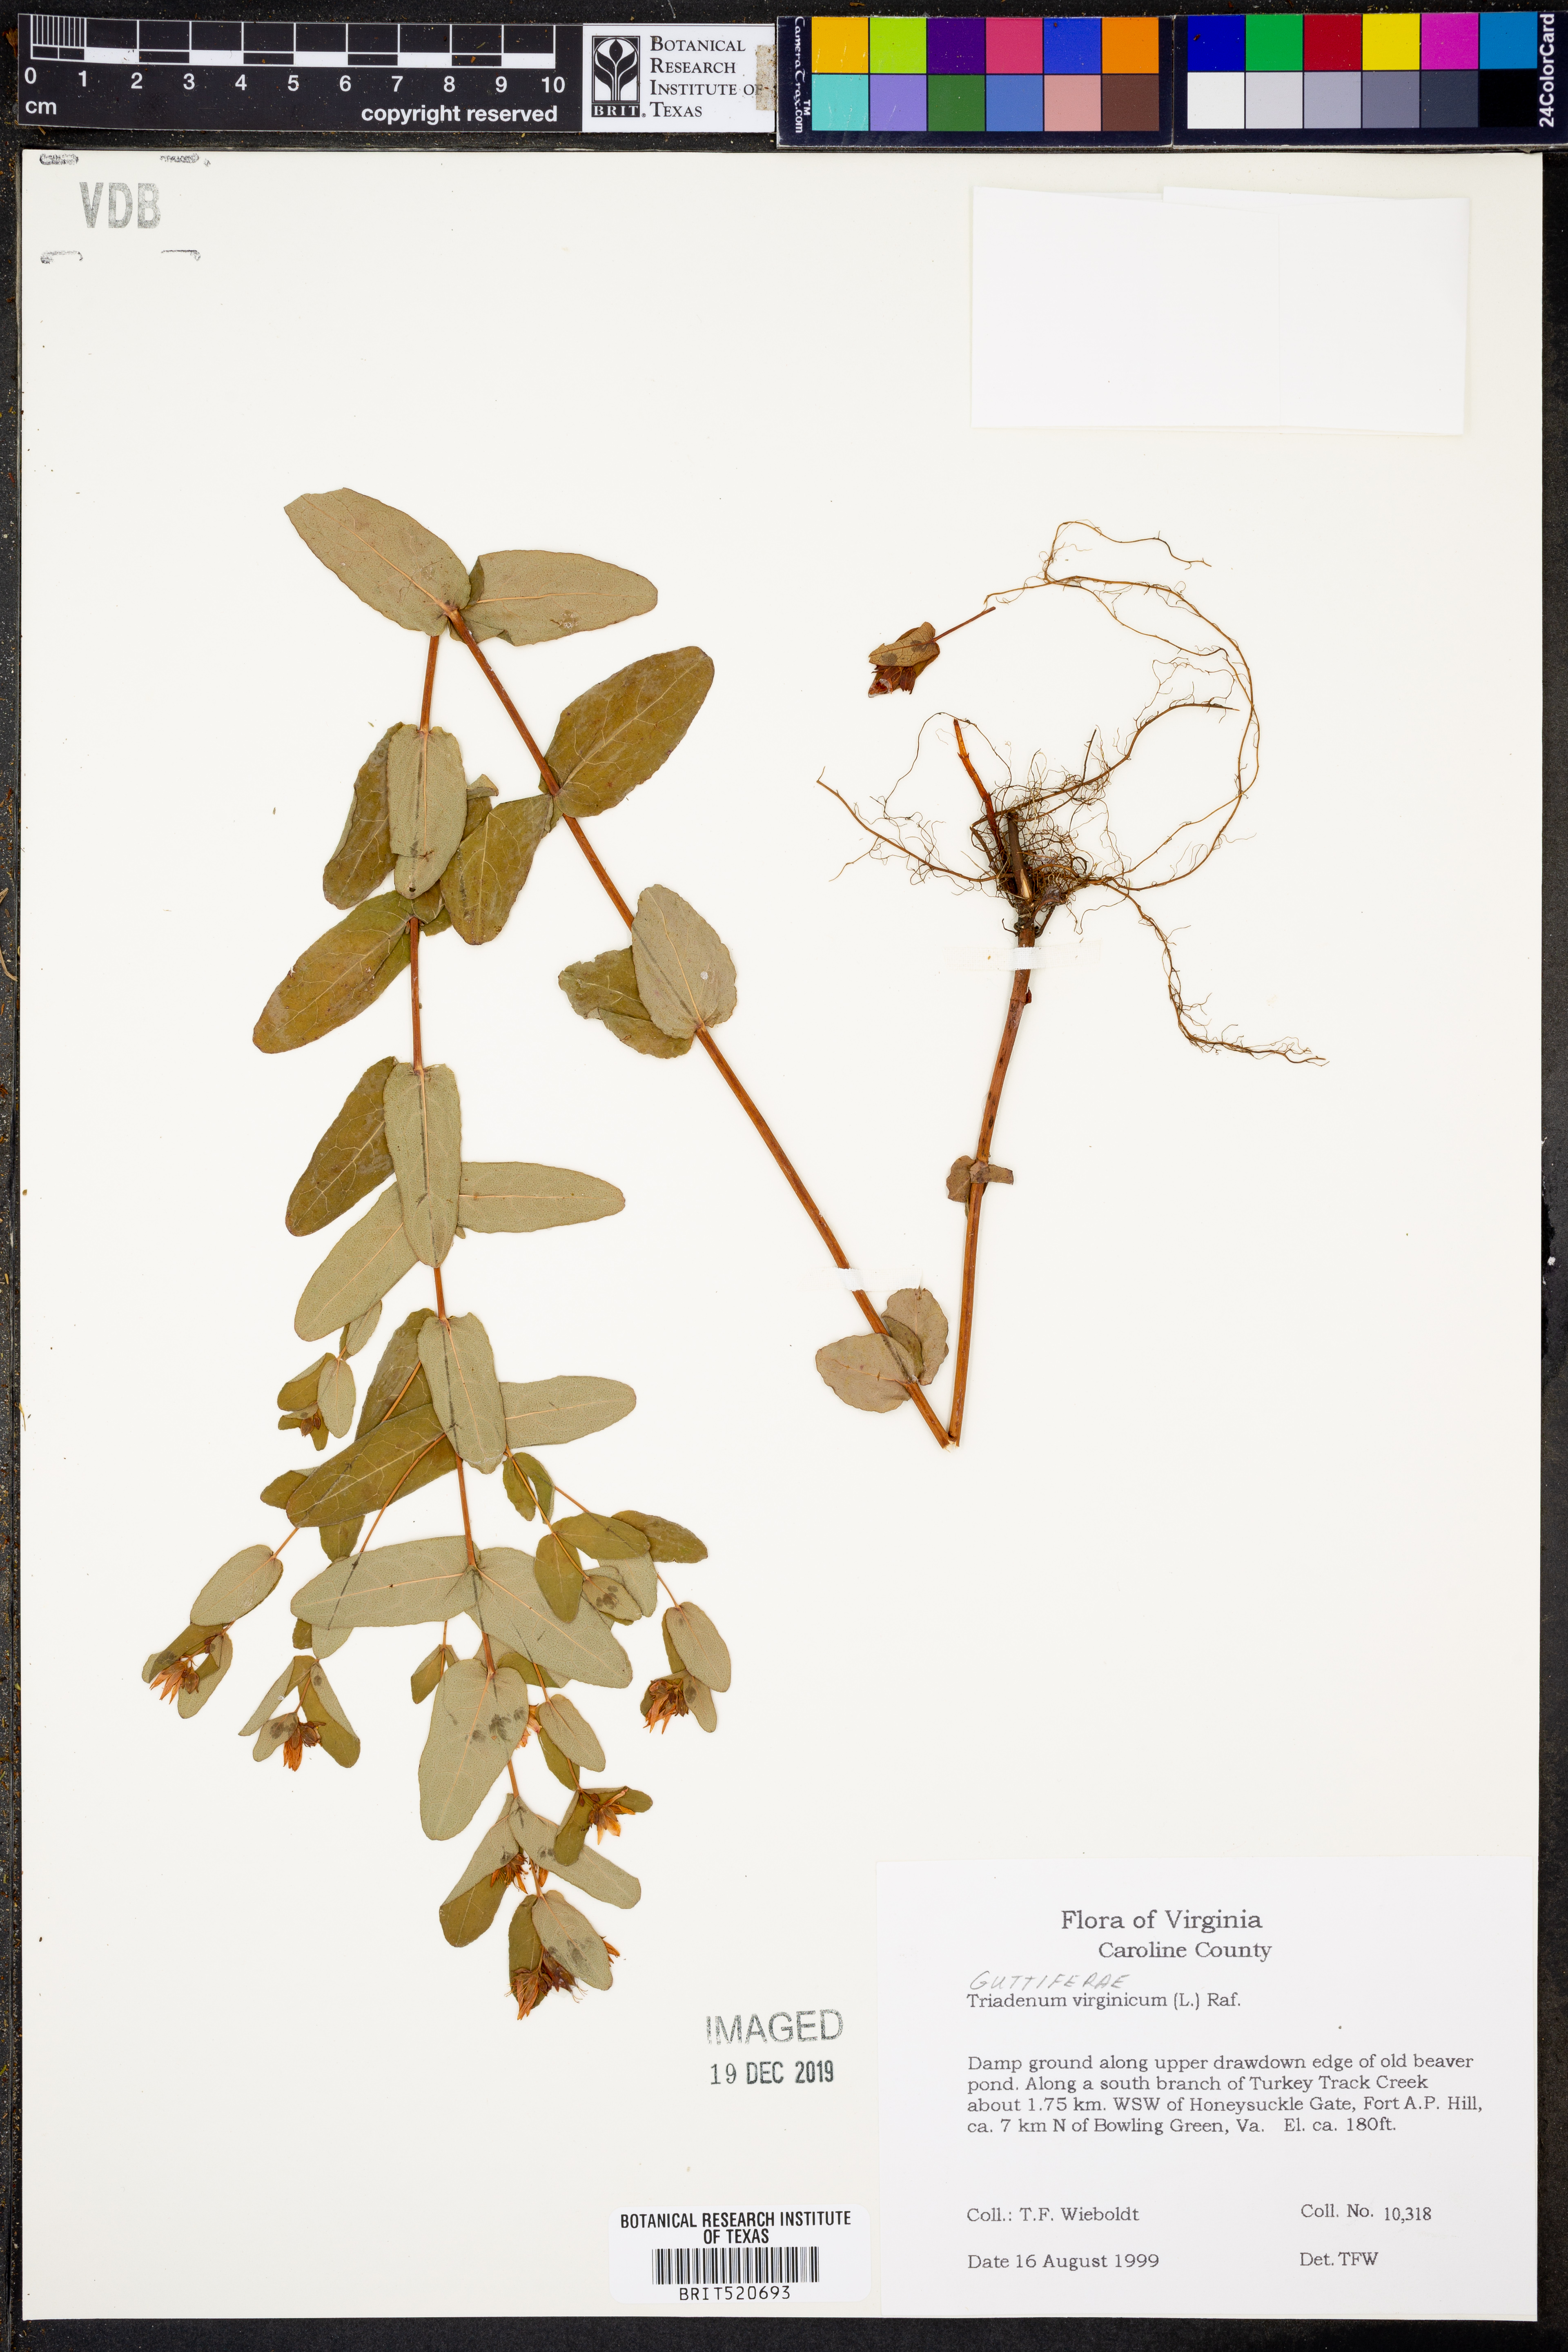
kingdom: Plantae
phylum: Tracheophyta
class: Magnoliopsida
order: Malpighiales
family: Hypericaceae
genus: Triadenum
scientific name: Triadenum virginicum
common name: Marsh st. john's-wort
